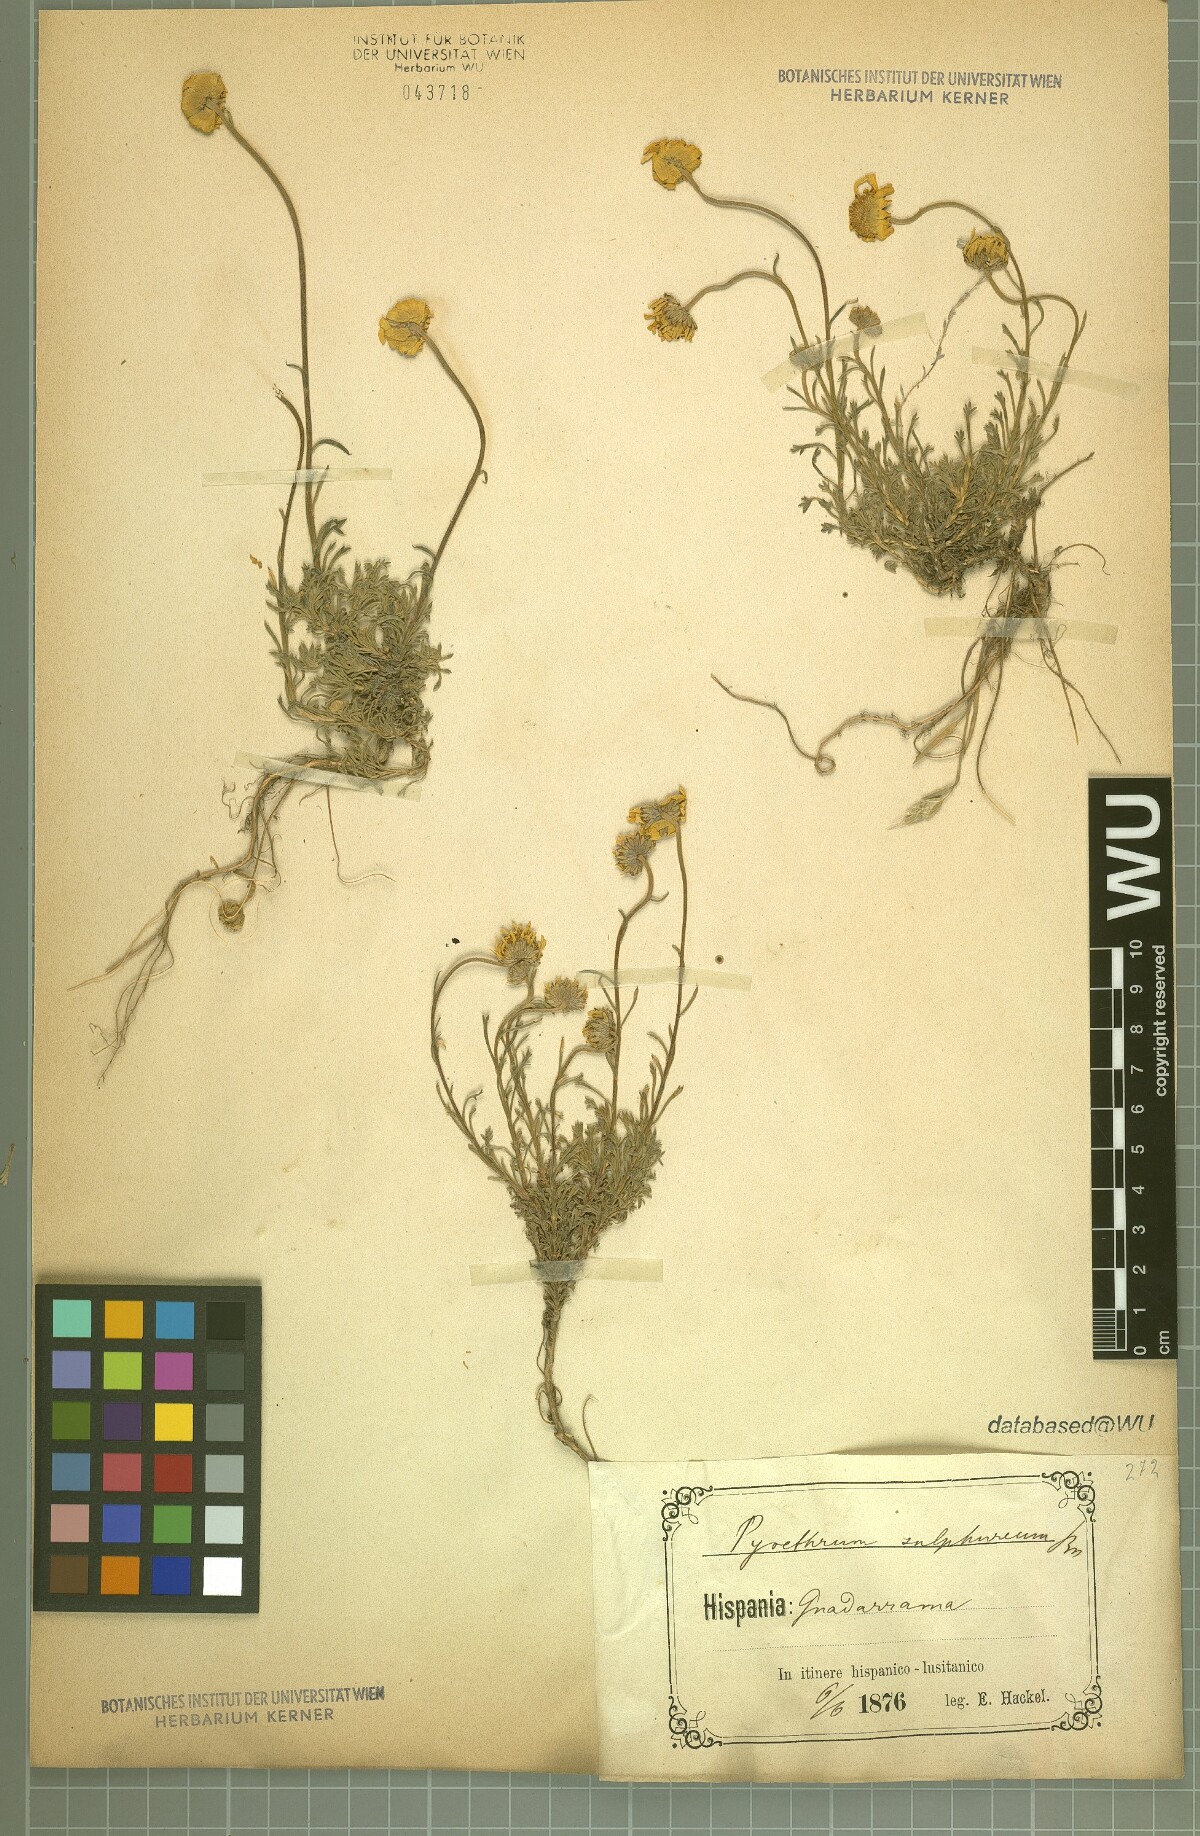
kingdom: Plantae
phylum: Tracheophyta
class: Magnoliopsida
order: Asterales
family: Asteraceae
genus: Leucanthemopsis
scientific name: Leucanthemopsis pallida
